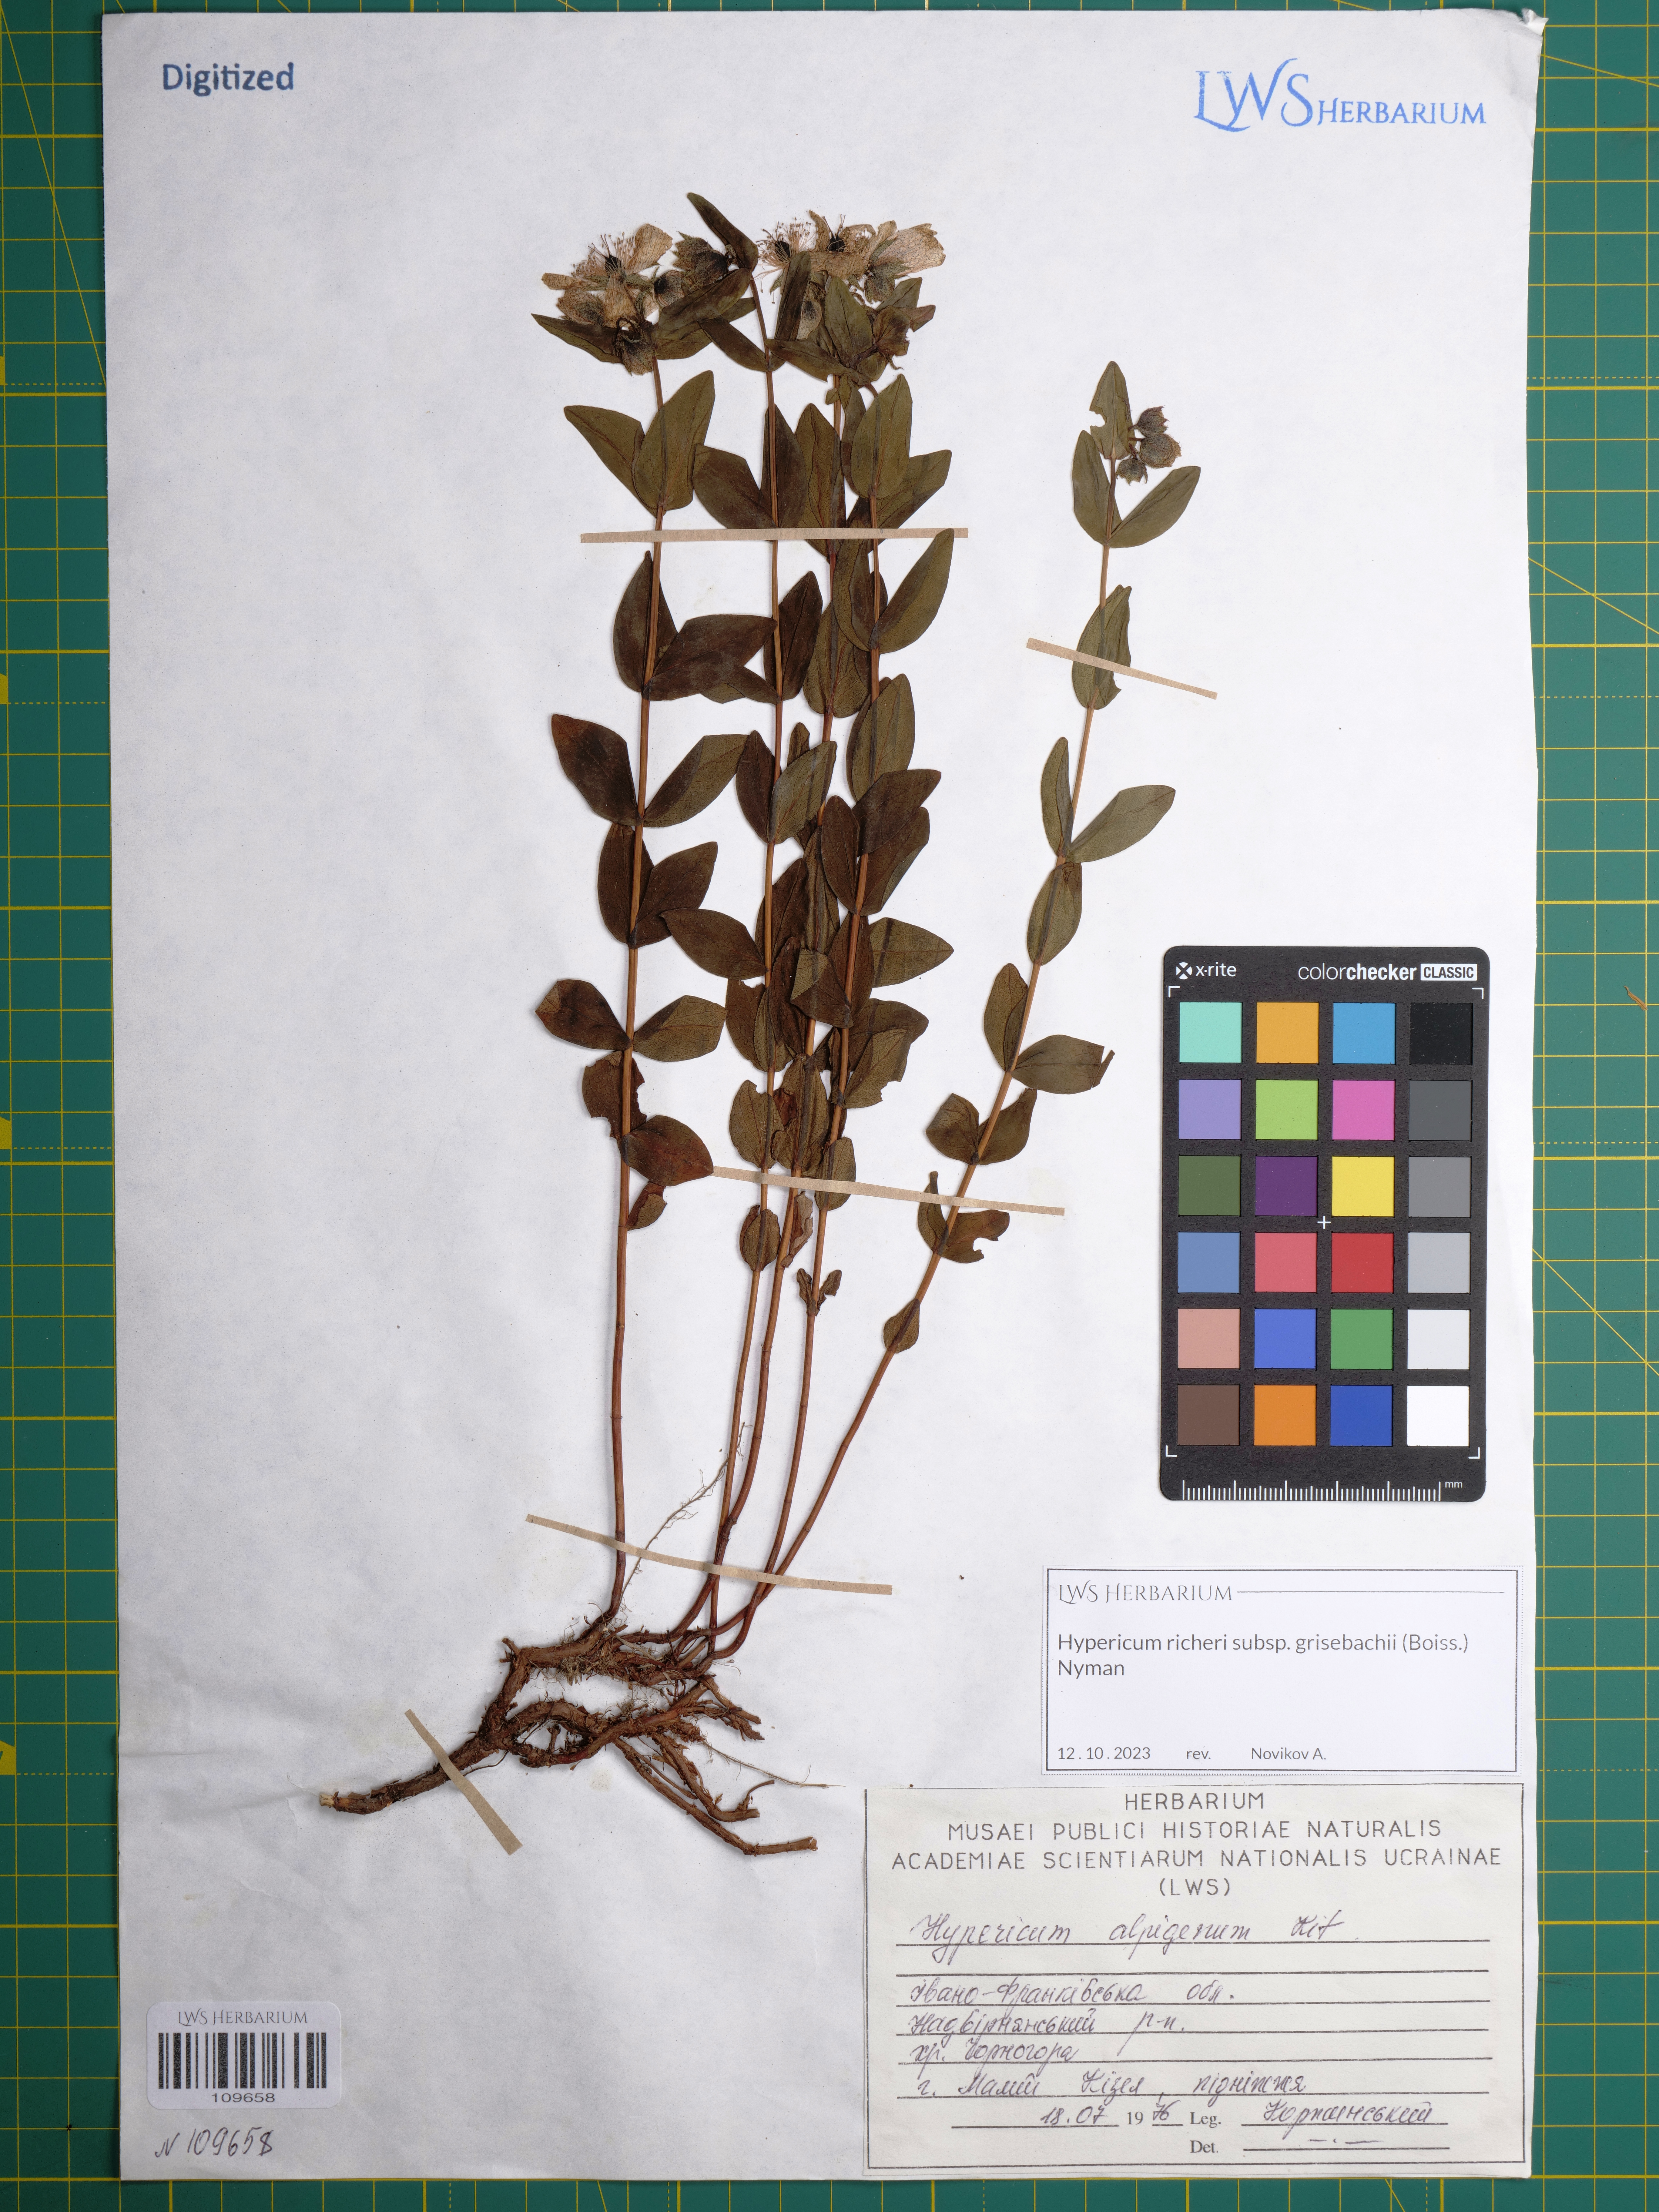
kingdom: Plantae
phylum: Tracheophyta
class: Magnoliopsida
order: Malpighiales
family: Hypericaceae
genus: Hypericum
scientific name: Hypericum richeri
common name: Alpine st john's-wort
